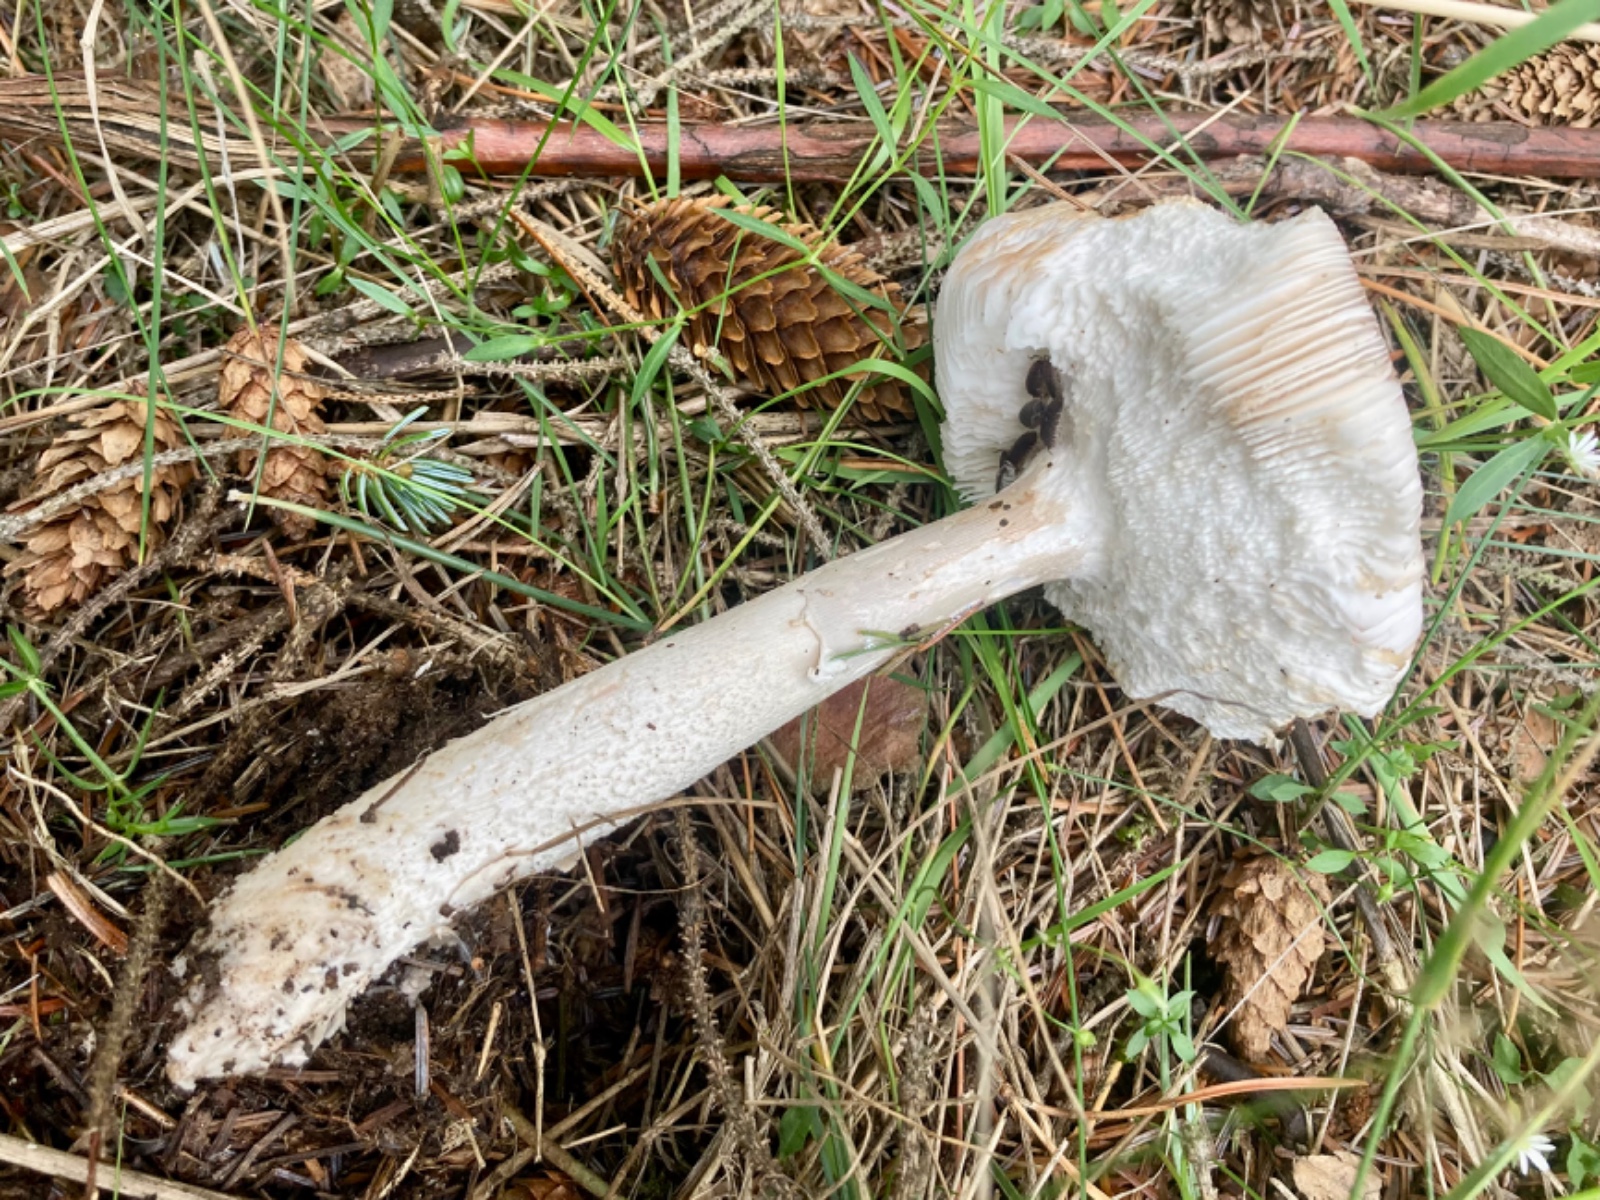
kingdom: Fungi
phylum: Basidiomycota
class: Agaricomycetes
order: Agaricales
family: Amanitaceae
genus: Amanita
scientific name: Amanita porphyria
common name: porfyr-fluesvamp
